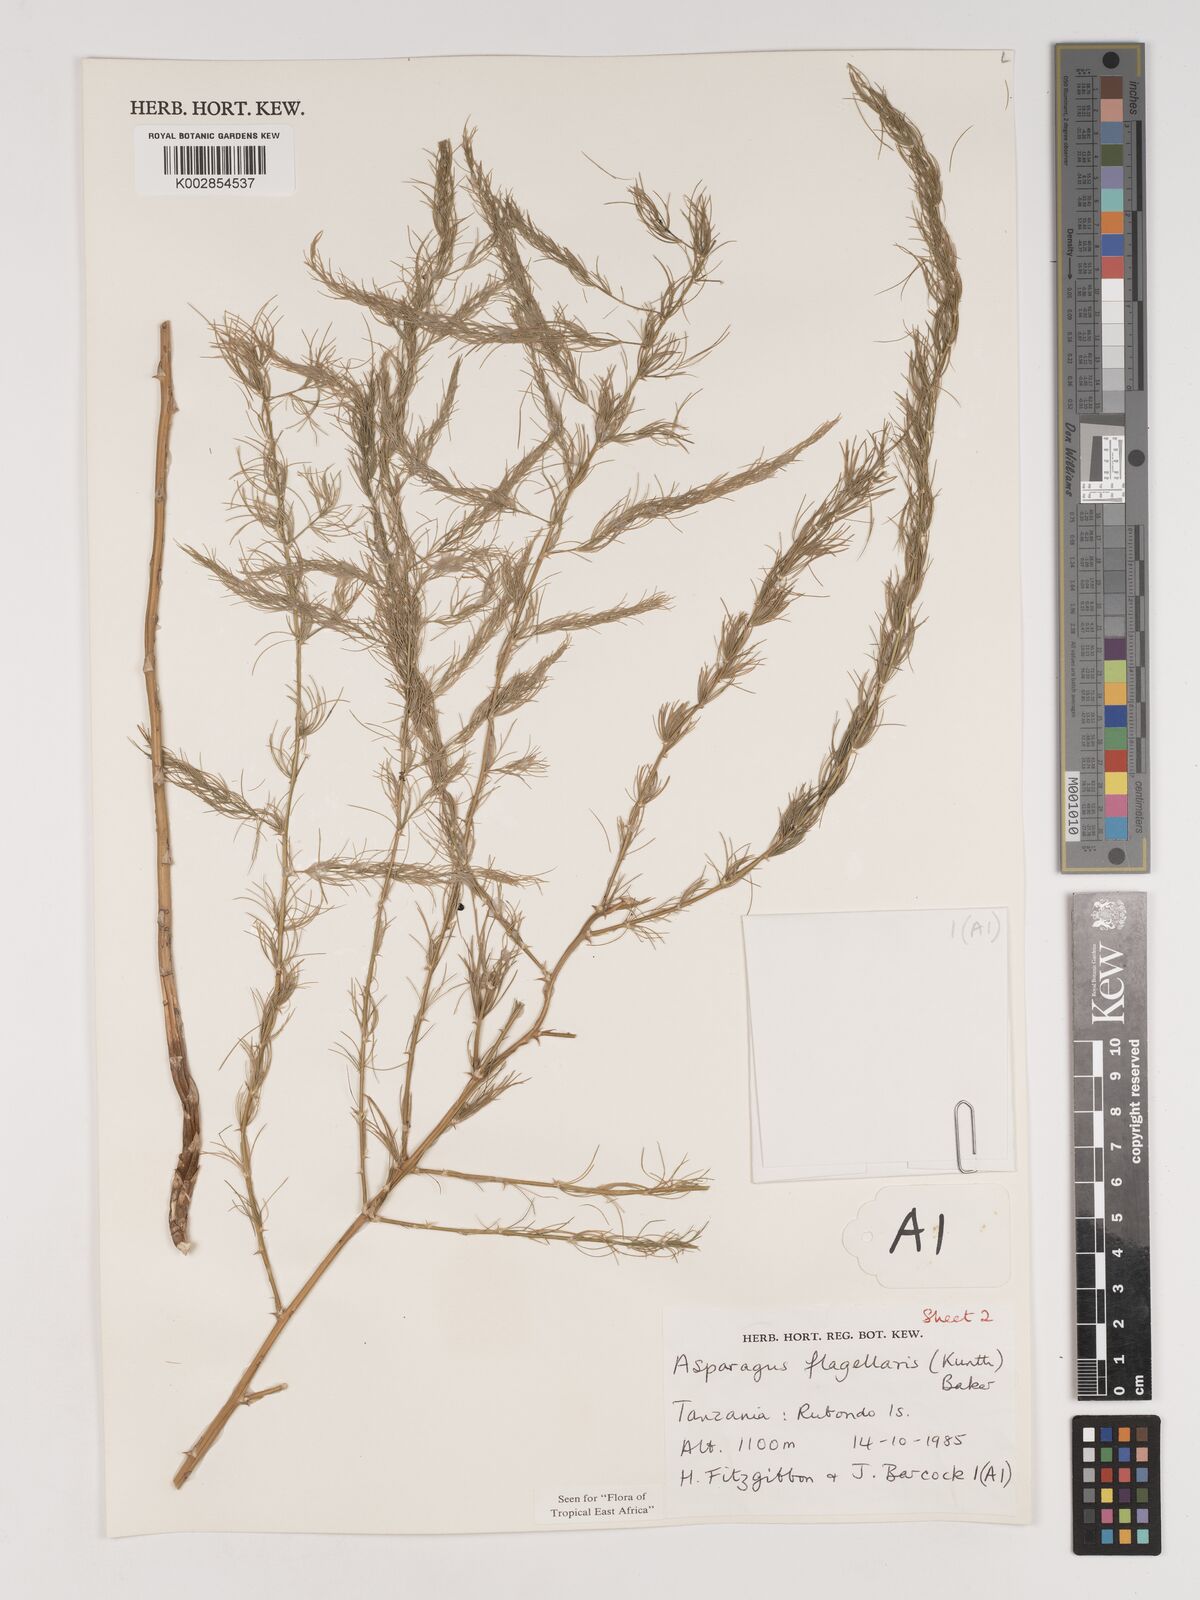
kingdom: Plantae
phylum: Tracheophyta
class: Liliopsida
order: Asparagales
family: Asparagaceae
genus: Asparagus
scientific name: Asparagus flagellaris
